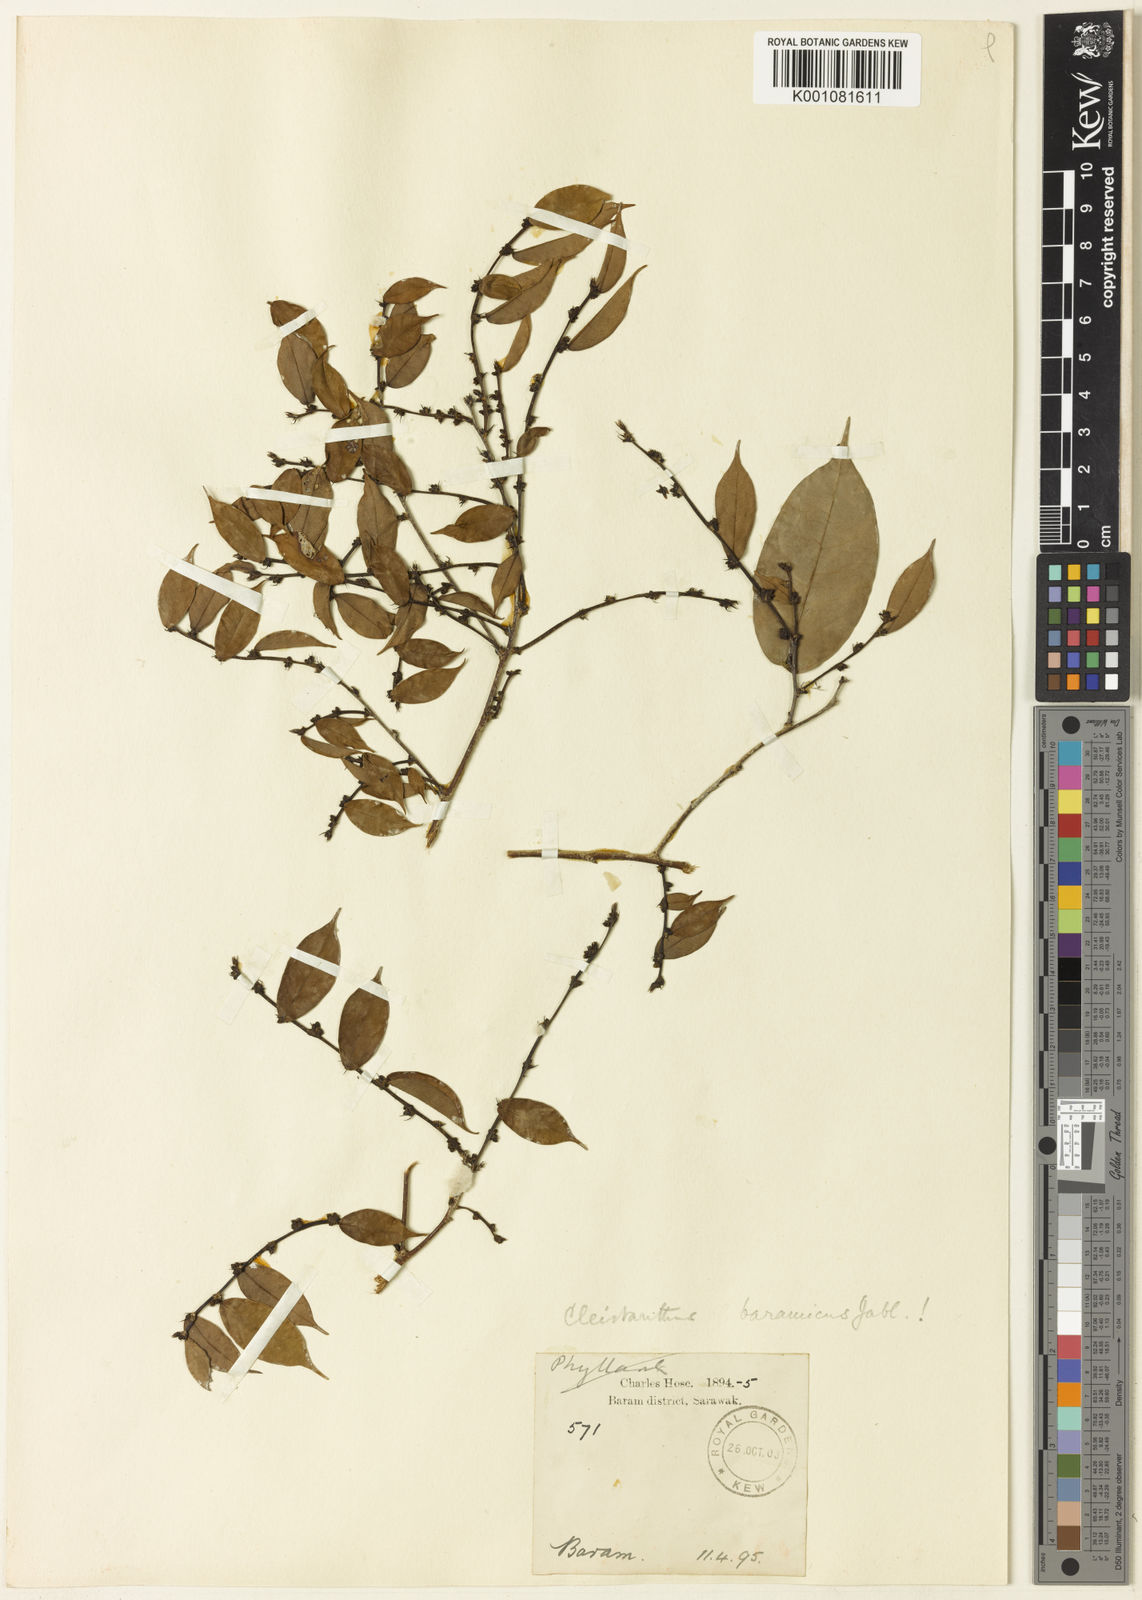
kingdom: Plantae
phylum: Tracheophyta
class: Magnoliopsida
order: Malpighiales
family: Phyllanthaceae
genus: Cleistanthus
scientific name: Cleistanthus baramicus
